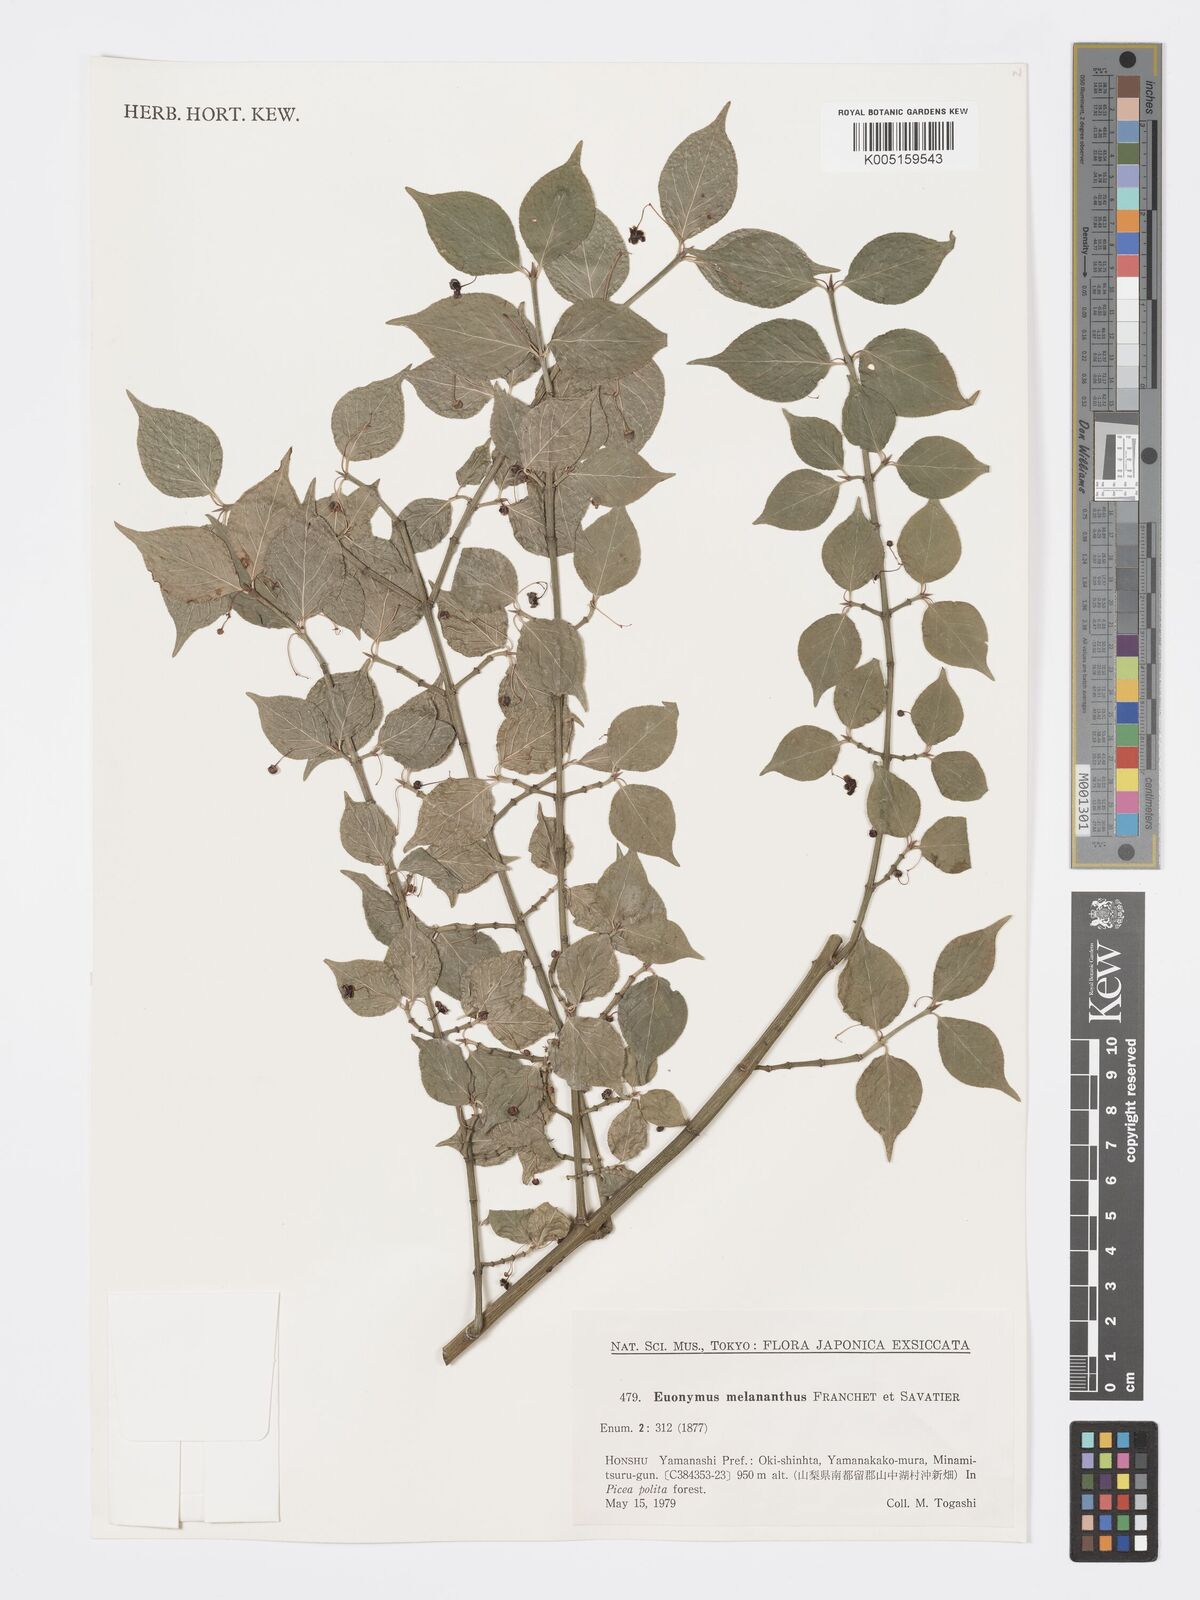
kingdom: Plantae
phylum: Tracheophyta
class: Magnoliopsida
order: Celastrales
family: Celastraceae
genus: Euonymus
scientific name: Euonymus melananthus
